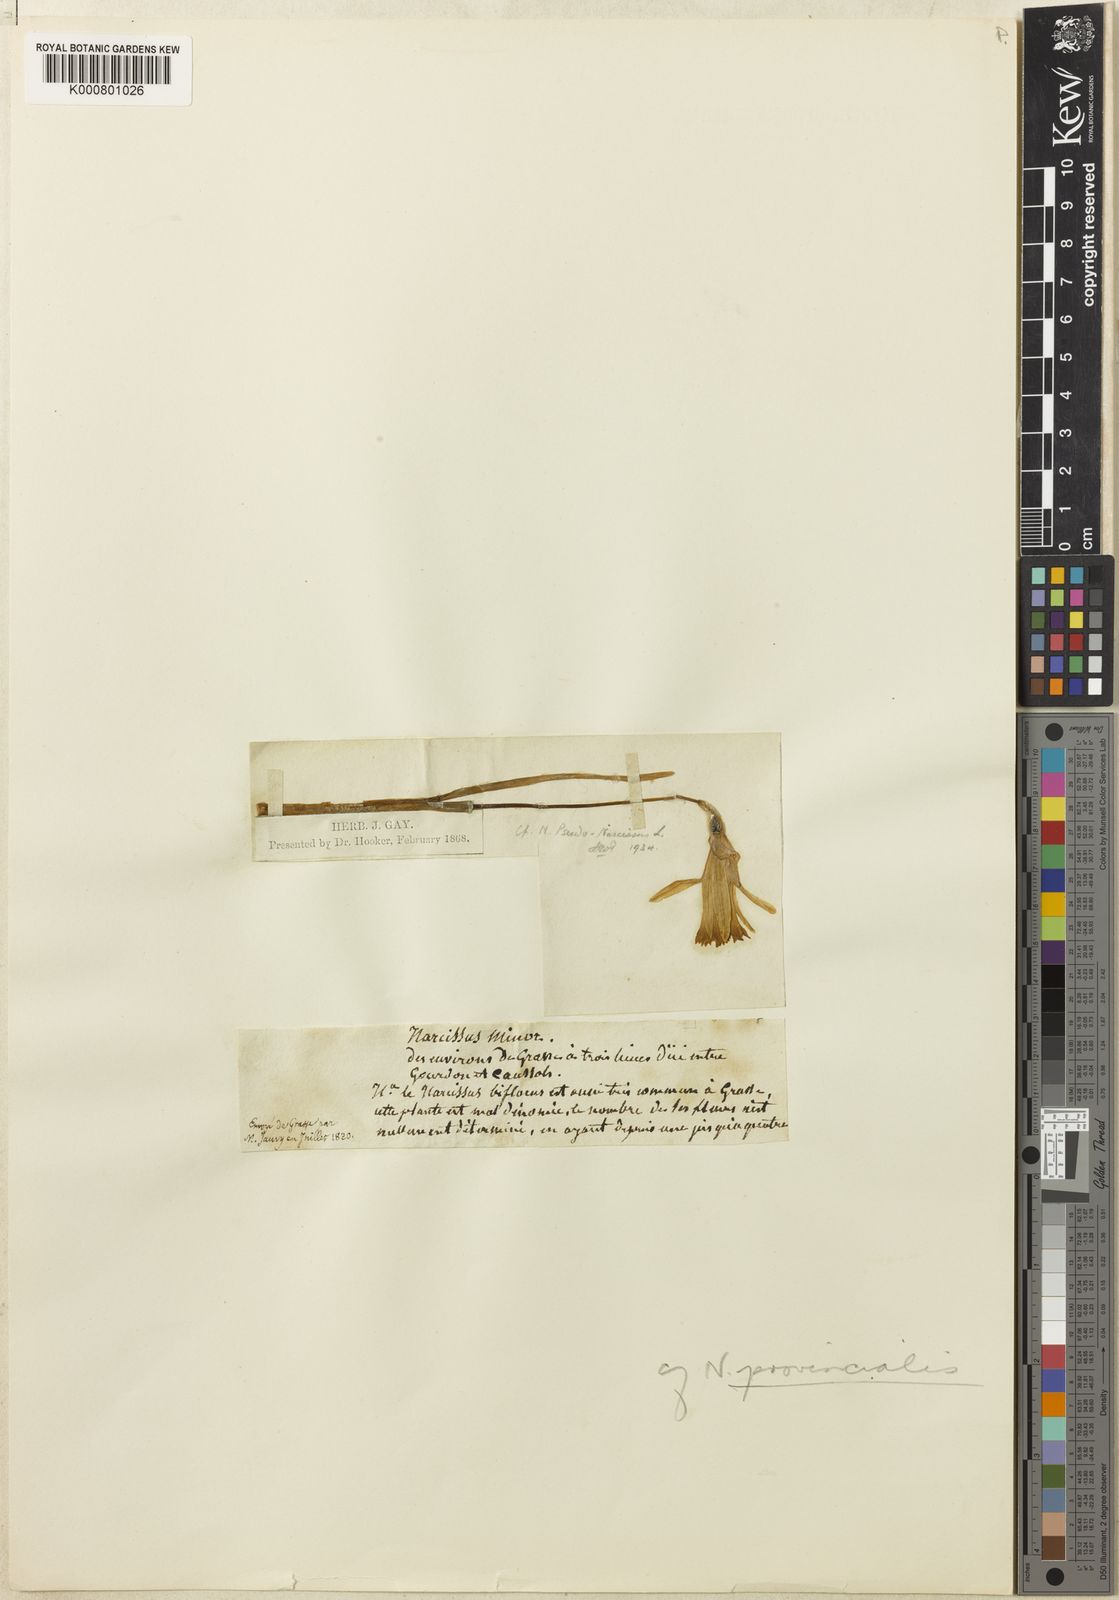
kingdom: Plantae
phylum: Tracheophyta
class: Liliopsida
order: Asparagales
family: Amaryllidaceae
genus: Narcissus
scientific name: Narcissus minor
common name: Lesser daffodil
